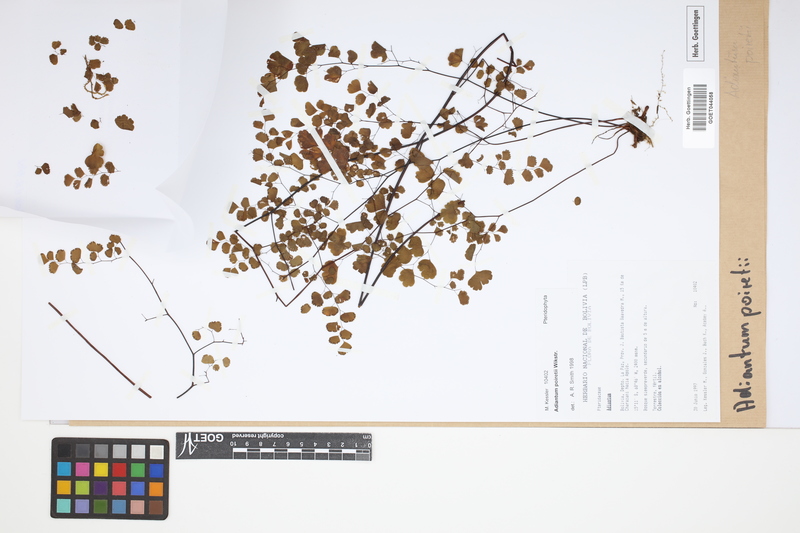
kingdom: Plantae
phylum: Tracheophyta
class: Polypodiopsida
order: Polypodiales
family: Pteridaceae
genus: Adiantum
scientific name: Adiantum poiretii
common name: Mexican maidenhair
